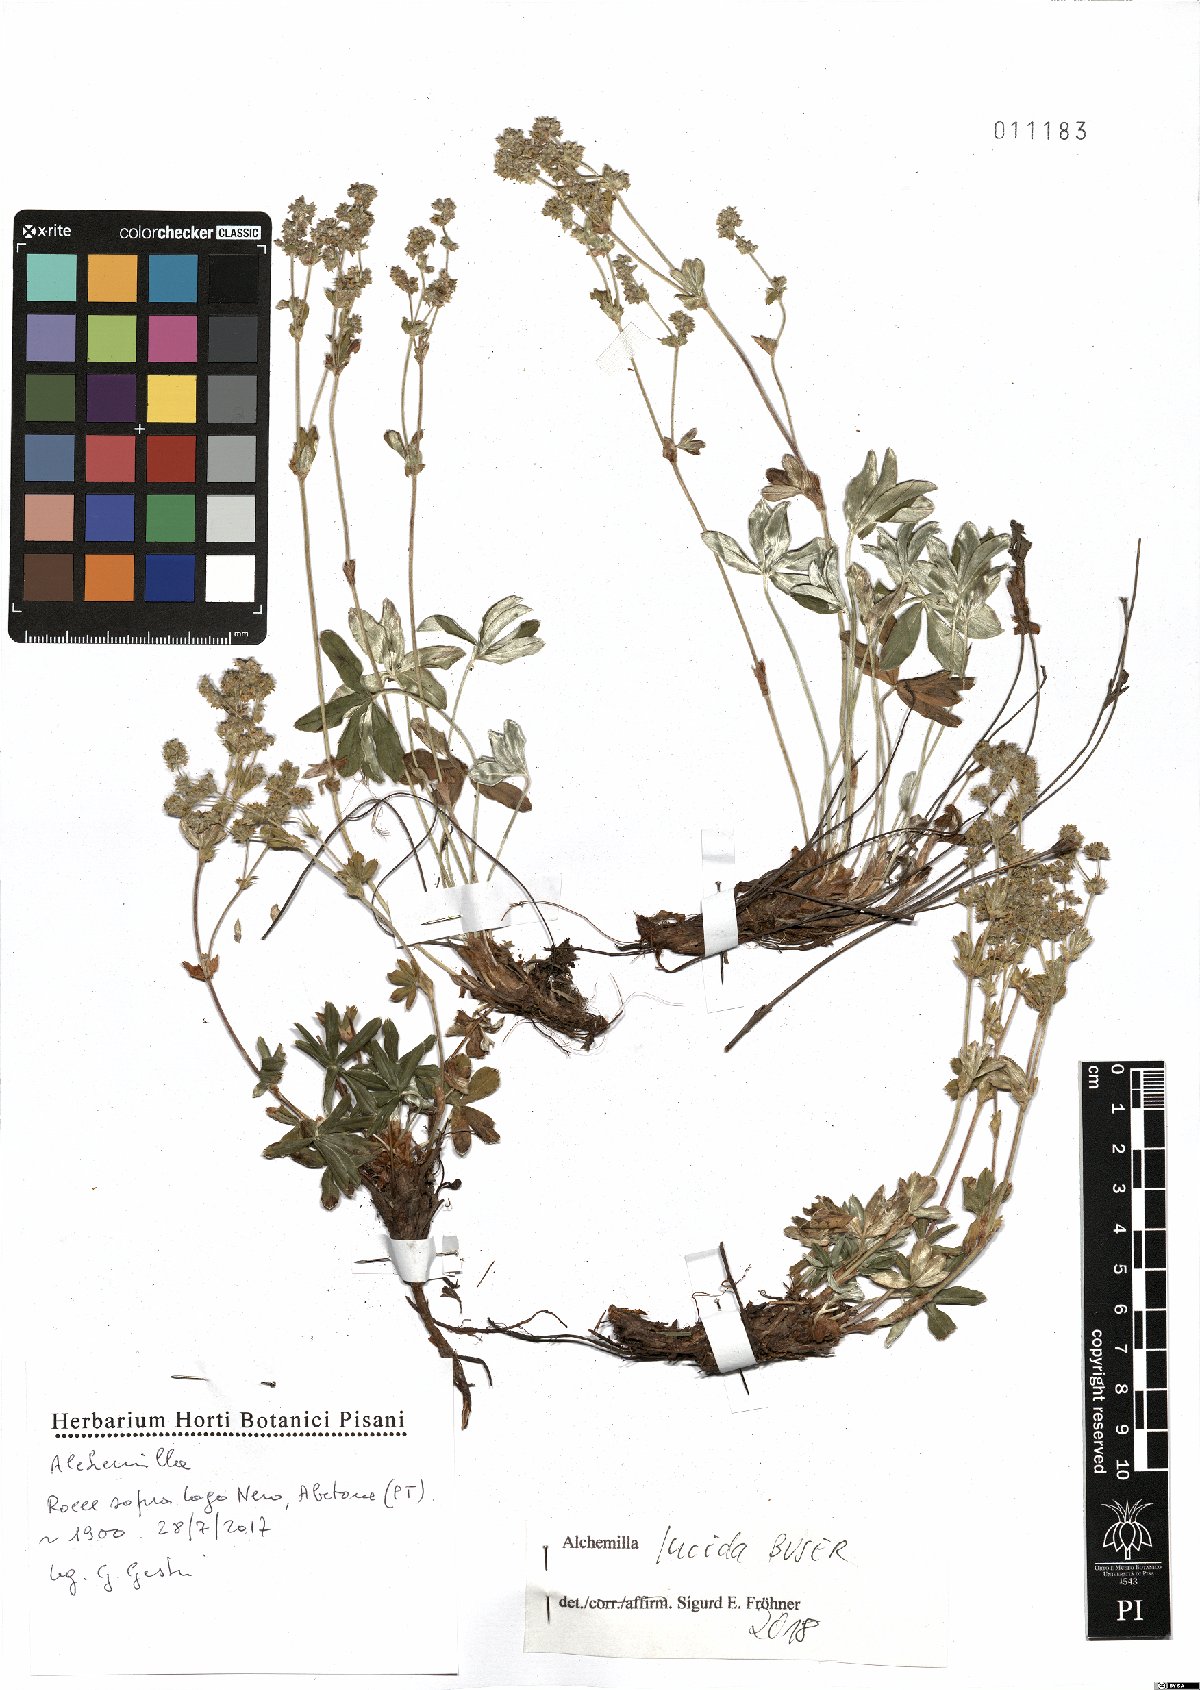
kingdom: Plantae
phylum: Tracheophyta
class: Magnoliopsida
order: Rosales
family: Rosaceae
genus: Alchemilla
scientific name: Alchemilla lucida
